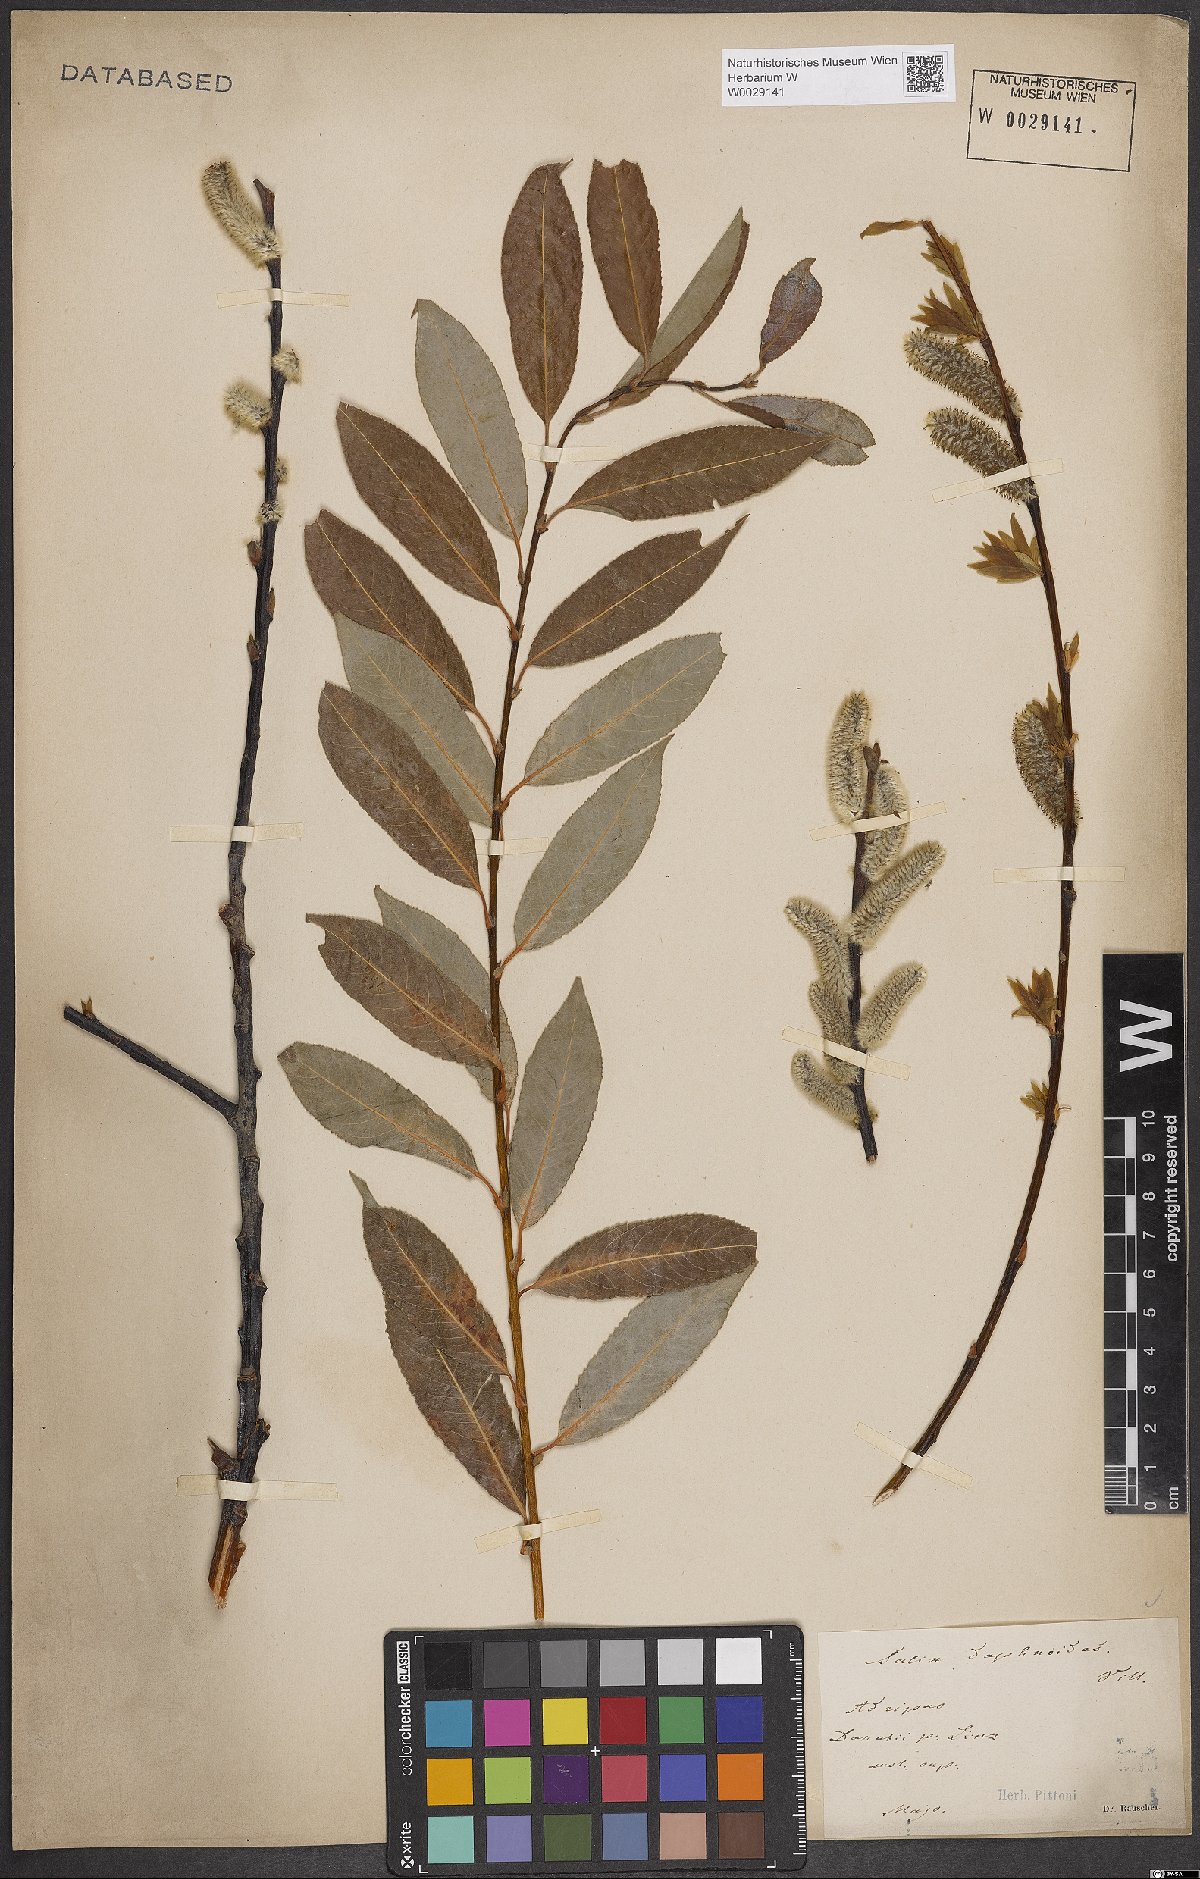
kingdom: Plantae
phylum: Tracheophyta
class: Magnoliopsida
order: Malpighiales
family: Salicaceae
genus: Salix
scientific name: Salix daphnoides
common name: European violet-willow
